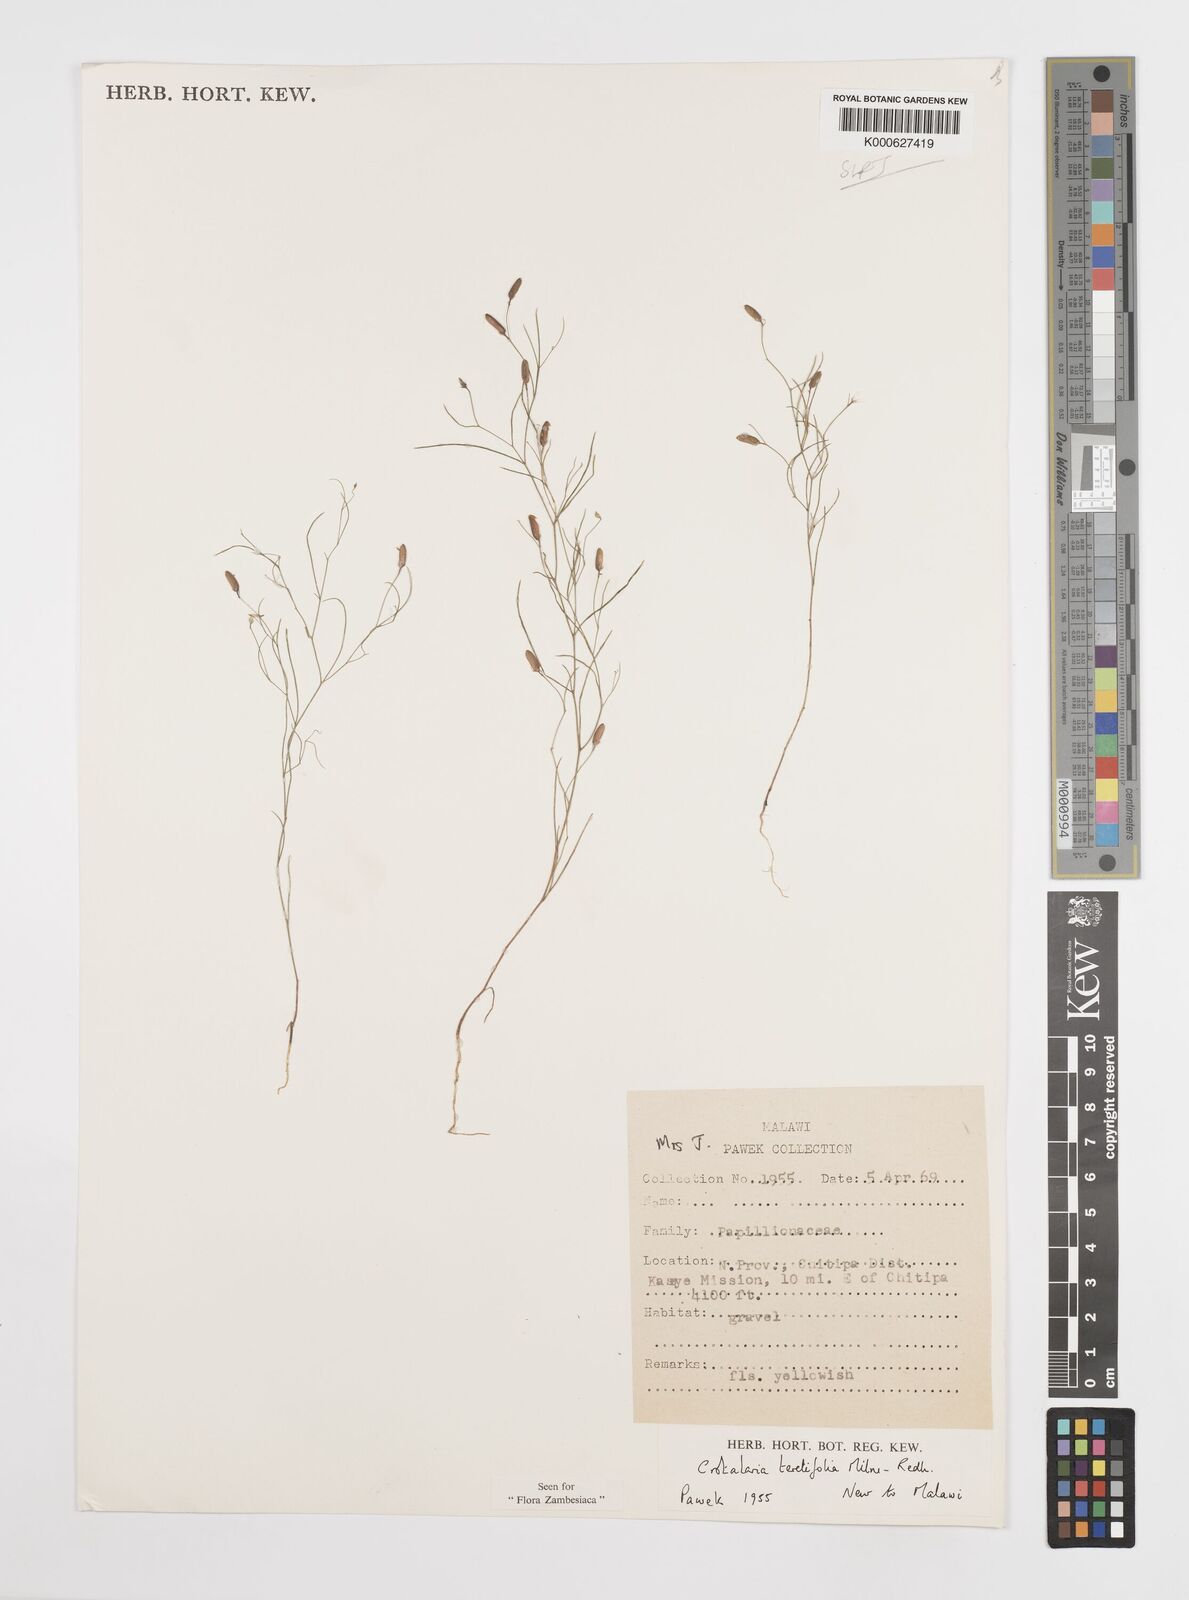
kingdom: Plantae
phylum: Tracheophyta
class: Magnoliopsida
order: Fabales
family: Fabaceae
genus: Crotalaria
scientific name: Crotalaria teretifolia
